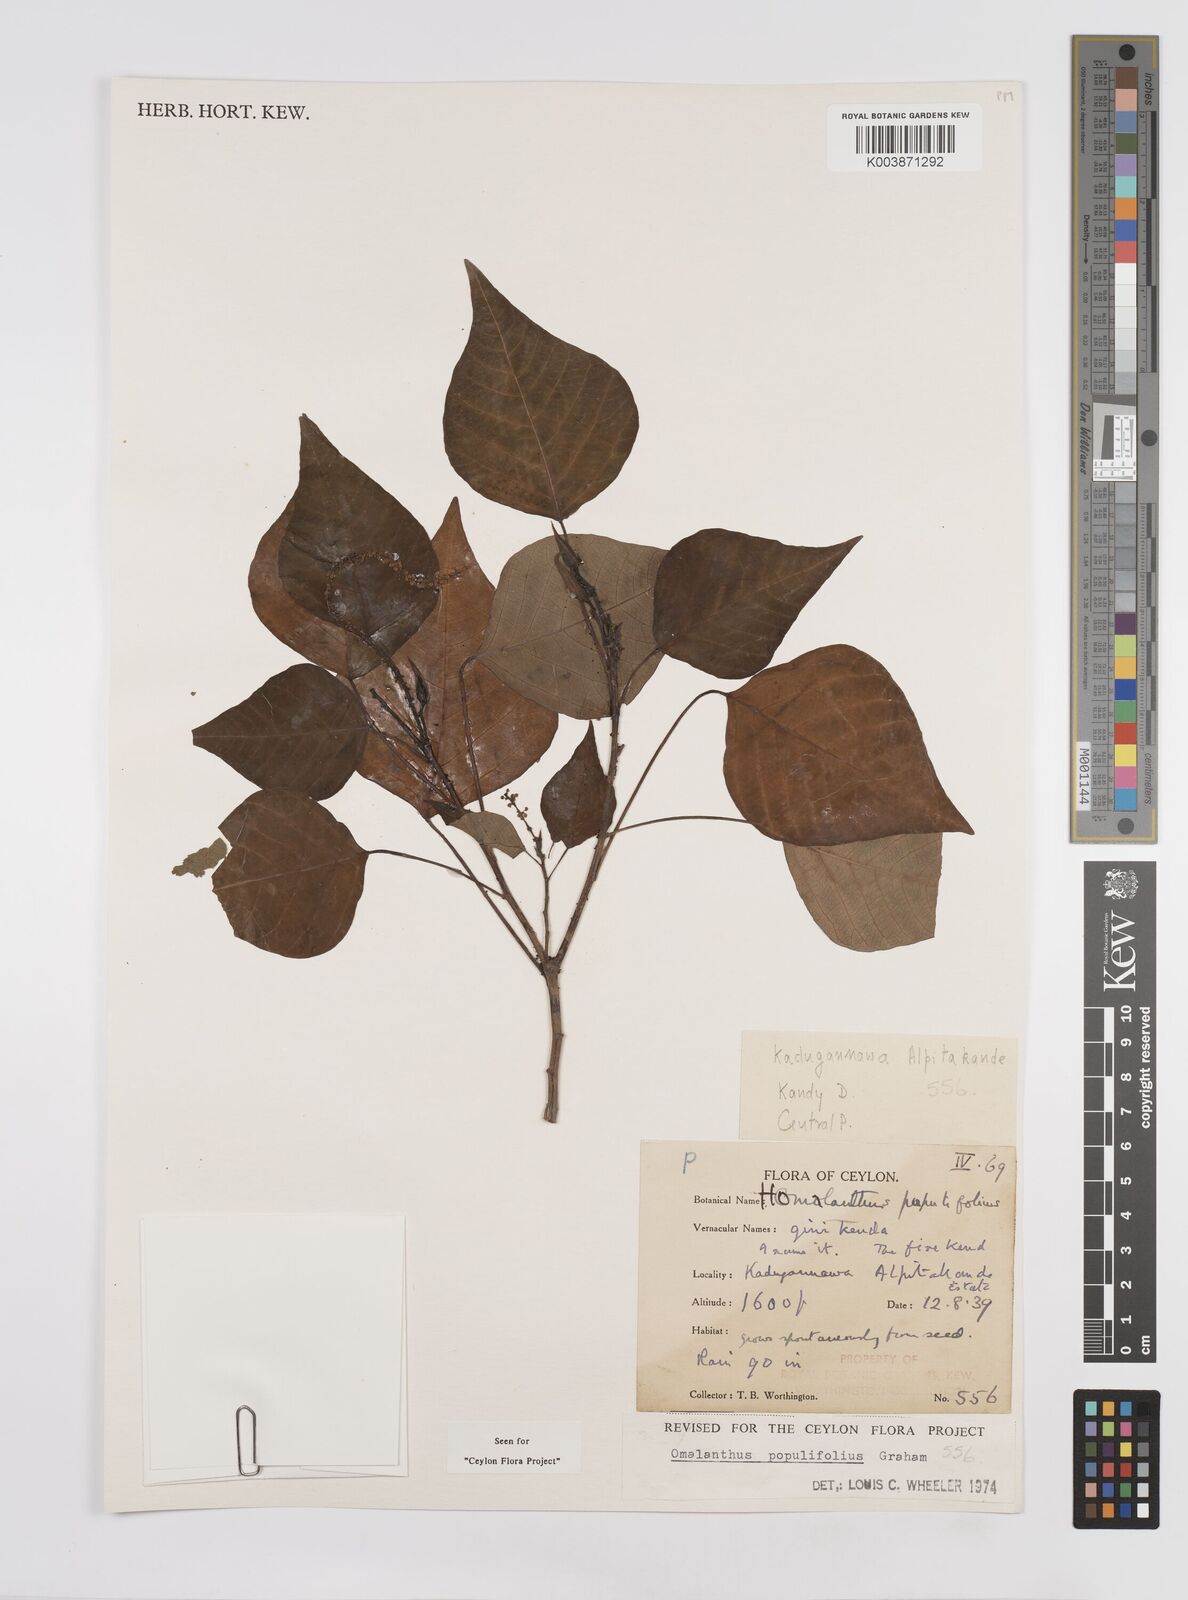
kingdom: Plantae
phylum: Tracheophyta
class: Magnoliopsida
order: Malpighiales
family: Euphorbiaceae
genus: Homalanthus
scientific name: Homalanthus populneus
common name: Spurge
